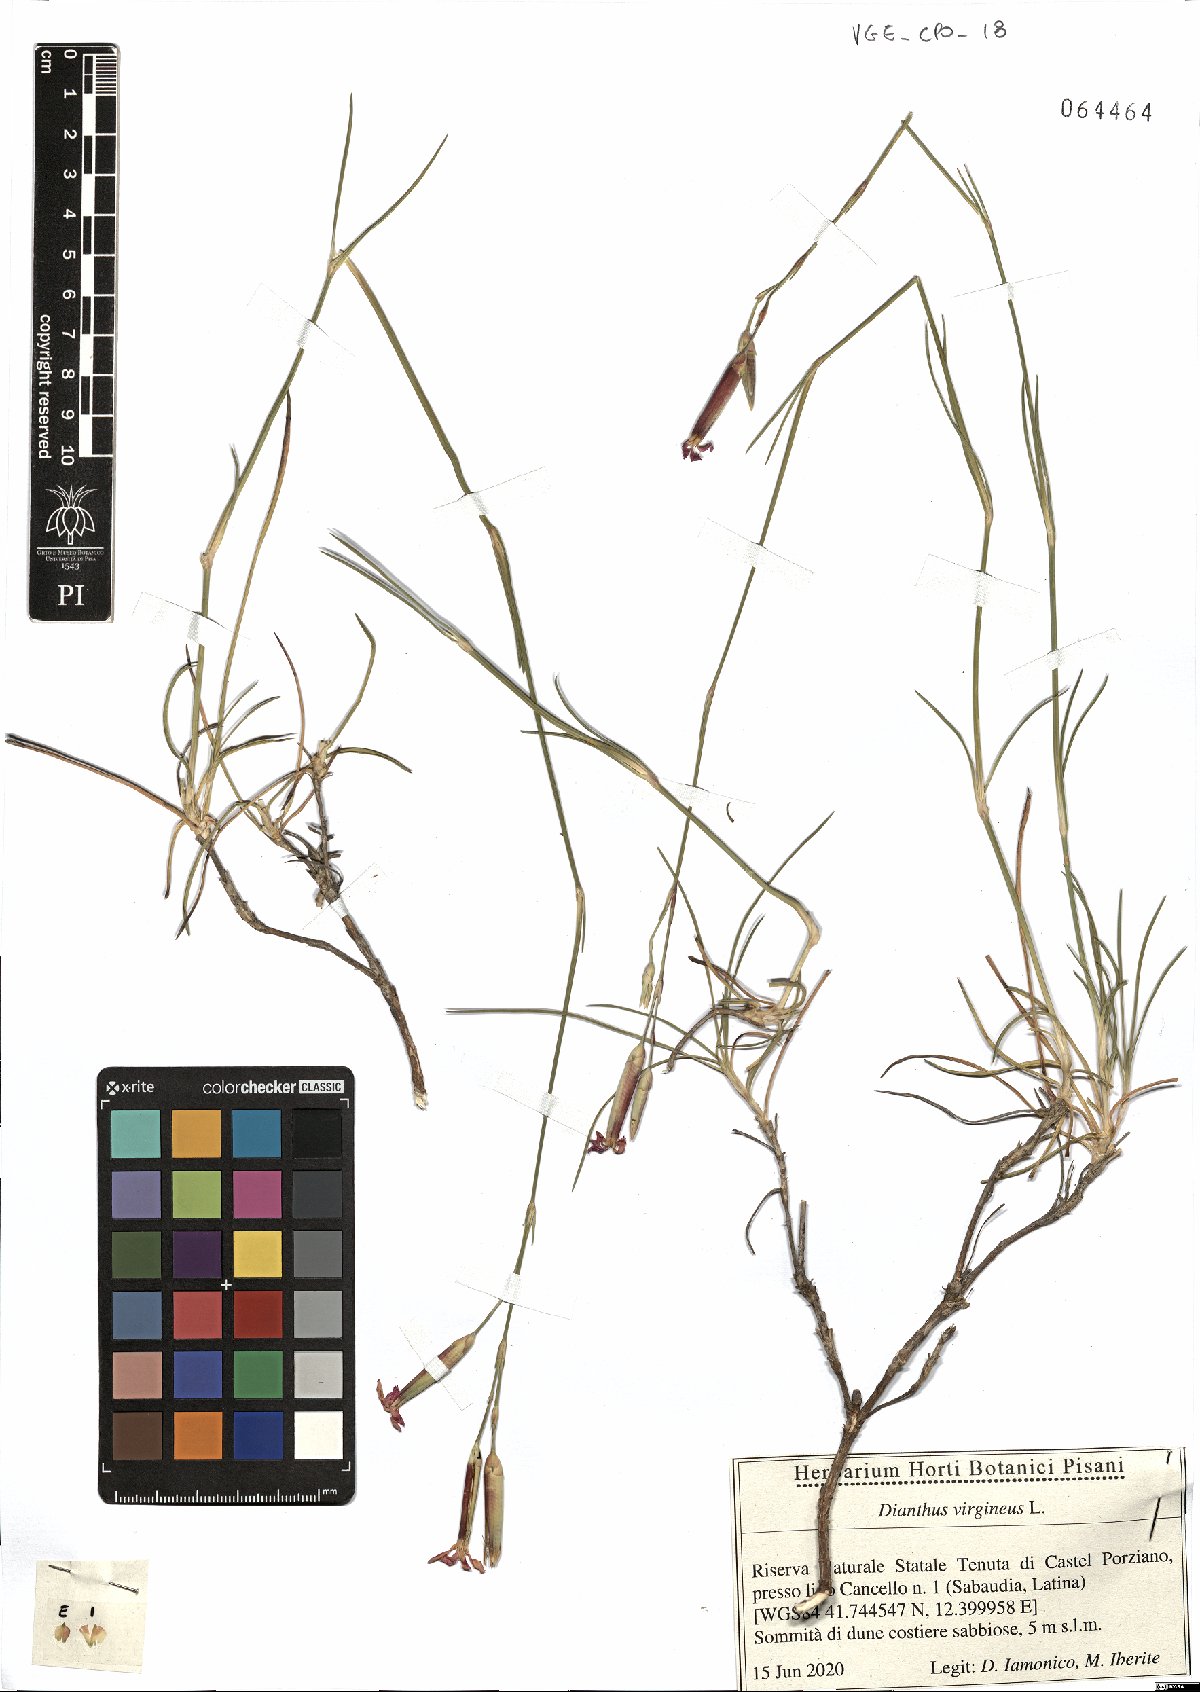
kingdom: Plantae
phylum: Tracheophyta
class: Magnoliopsida
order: Caryophyllales
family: Caryophyllaceae
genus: Dianthus
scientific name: Dianthus virgineus
